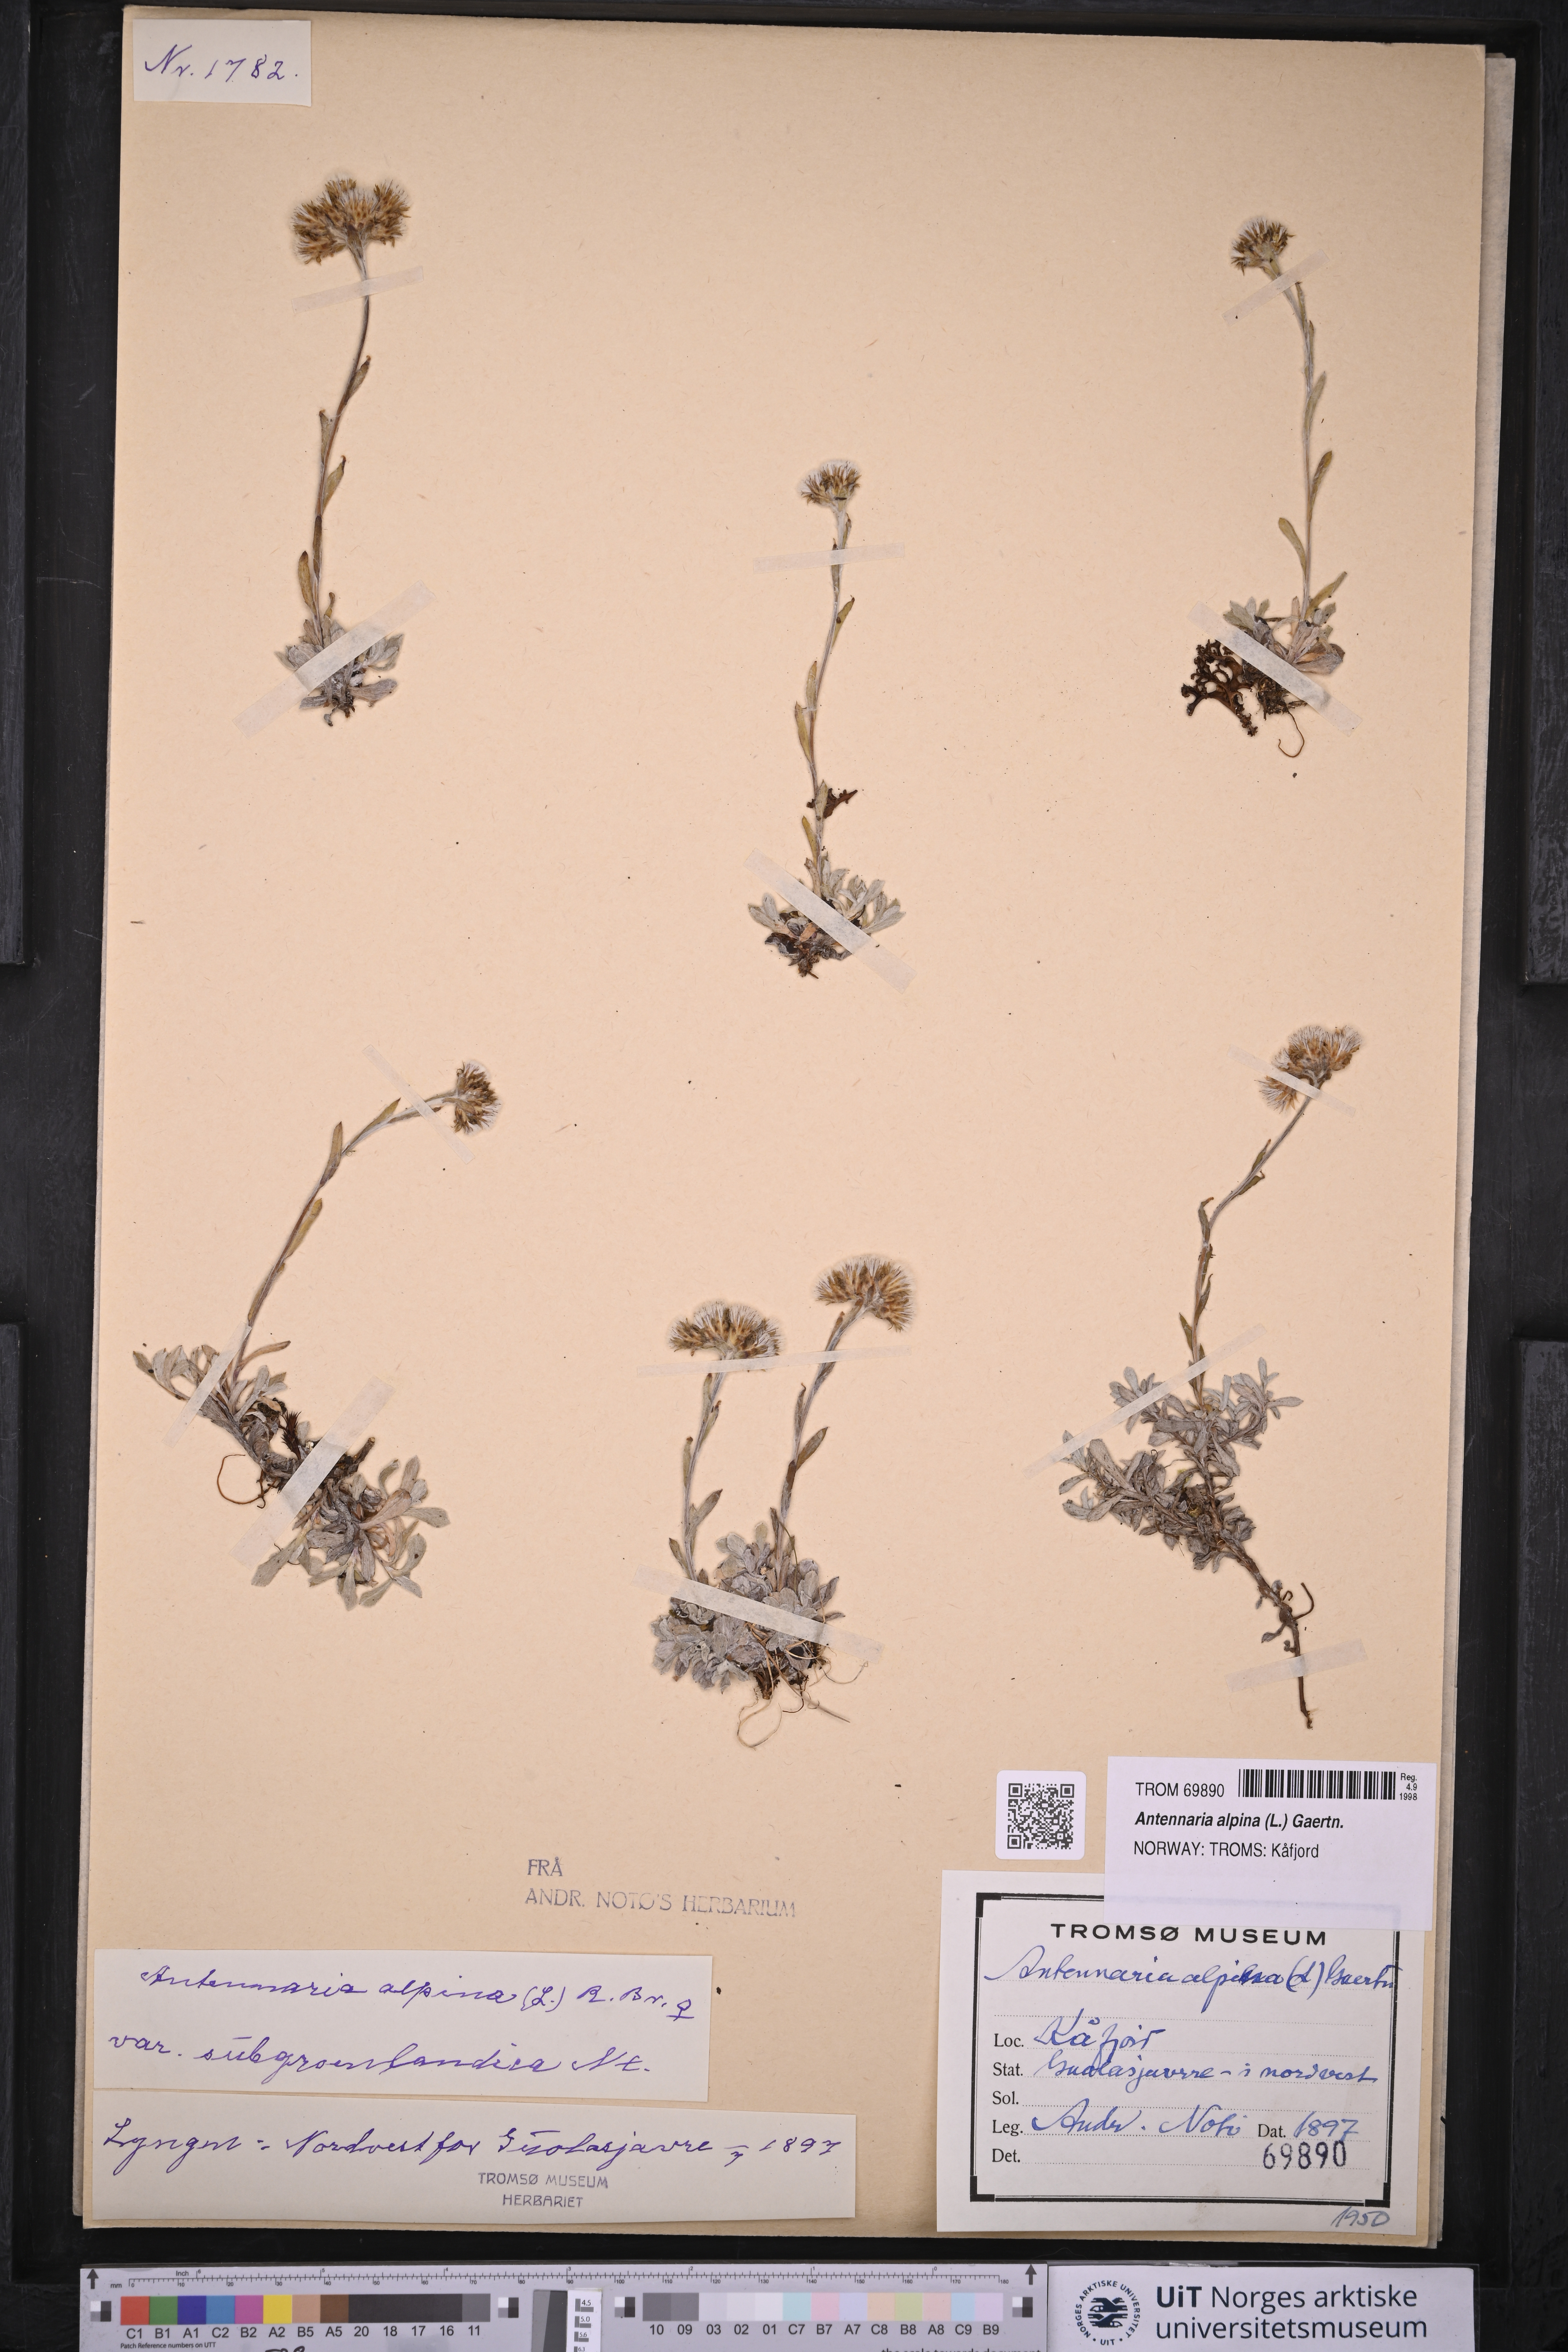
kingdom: Plantae
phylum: Tracheophyta
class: Magnoliopsida
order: Asterales
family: Asteraceae
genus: Antennaria
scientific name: Antennaria alpina
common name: Alpine pussytoes
